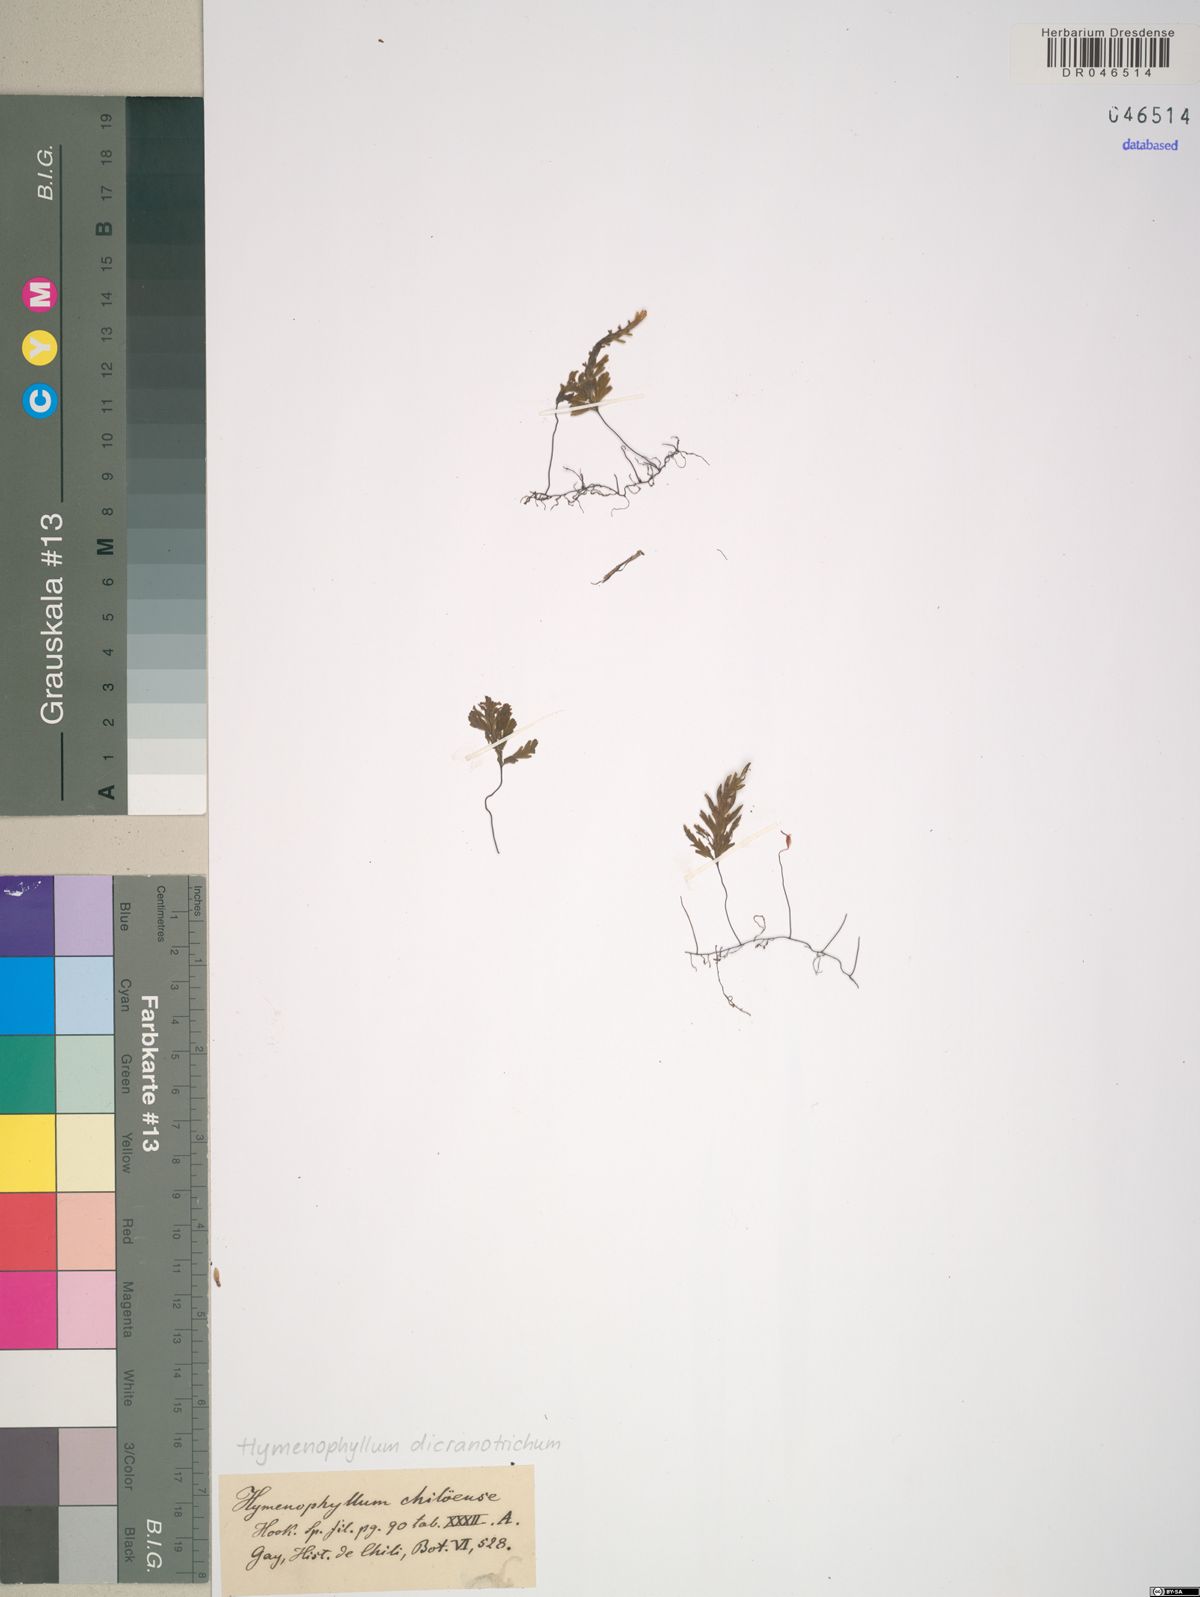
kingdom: Plantae
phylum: Tracheophyta
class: Polypodiopsida
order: Hymenophyllales
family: Hymenophyllaceae
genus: Hymenophyllum
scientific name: Hymenophyllum dicranotrichum
